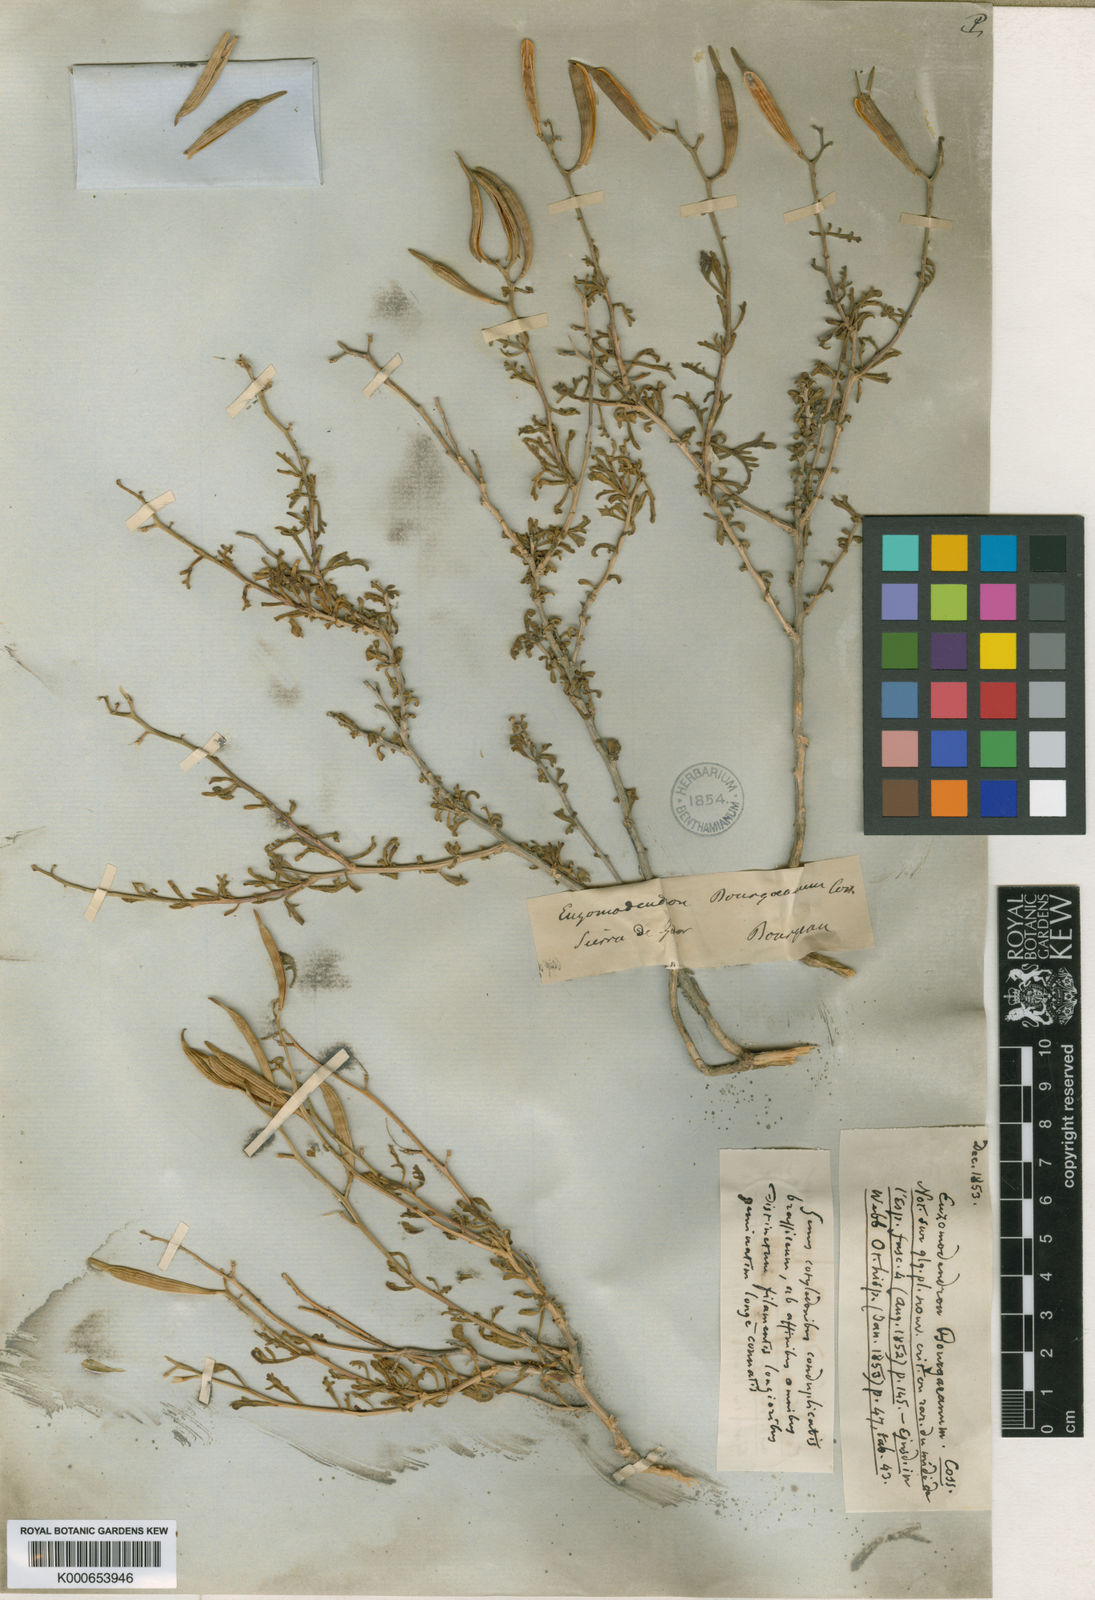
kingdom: Plantae
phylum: Tracheophyta
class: Magnoliopsida
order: Brassicales
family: Brassicaceae
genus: Vella
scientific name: Vella bourgaeana
